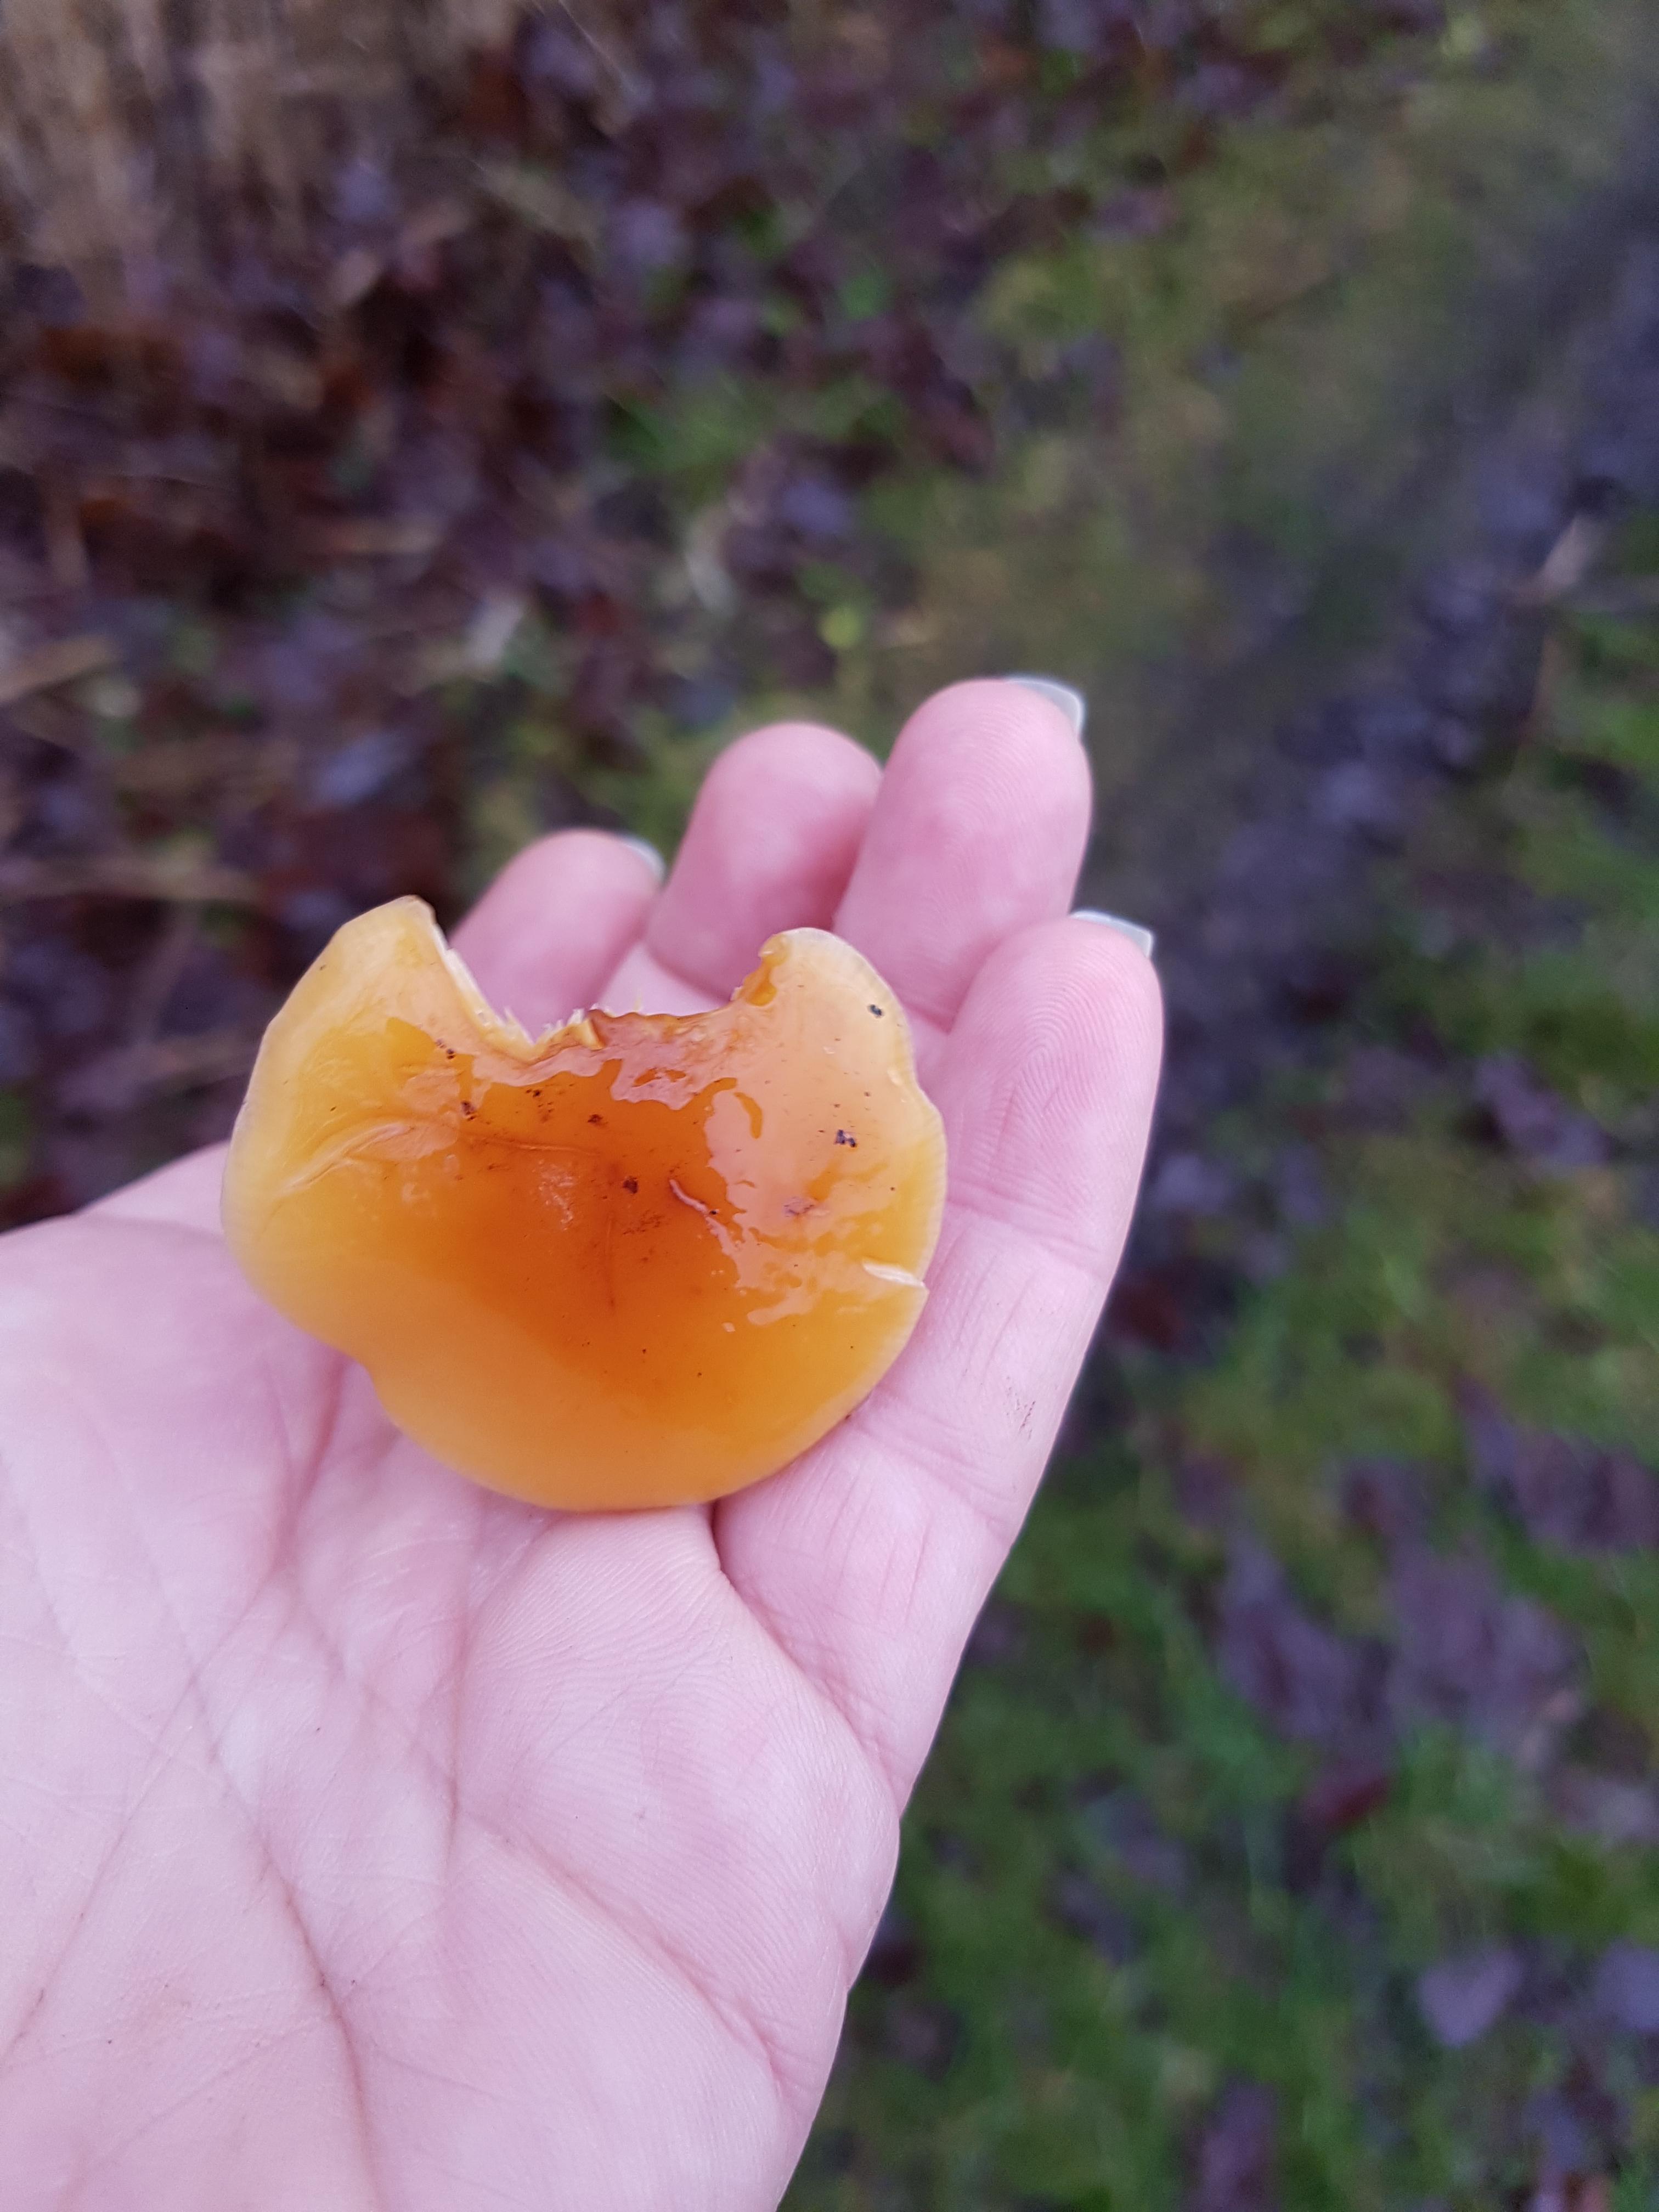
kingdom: Fungi
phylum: Basidiomycota
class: Agaricomycetes
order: Agaricales
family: Physalacriaceae
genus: Flammulina
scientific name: Flammulina
